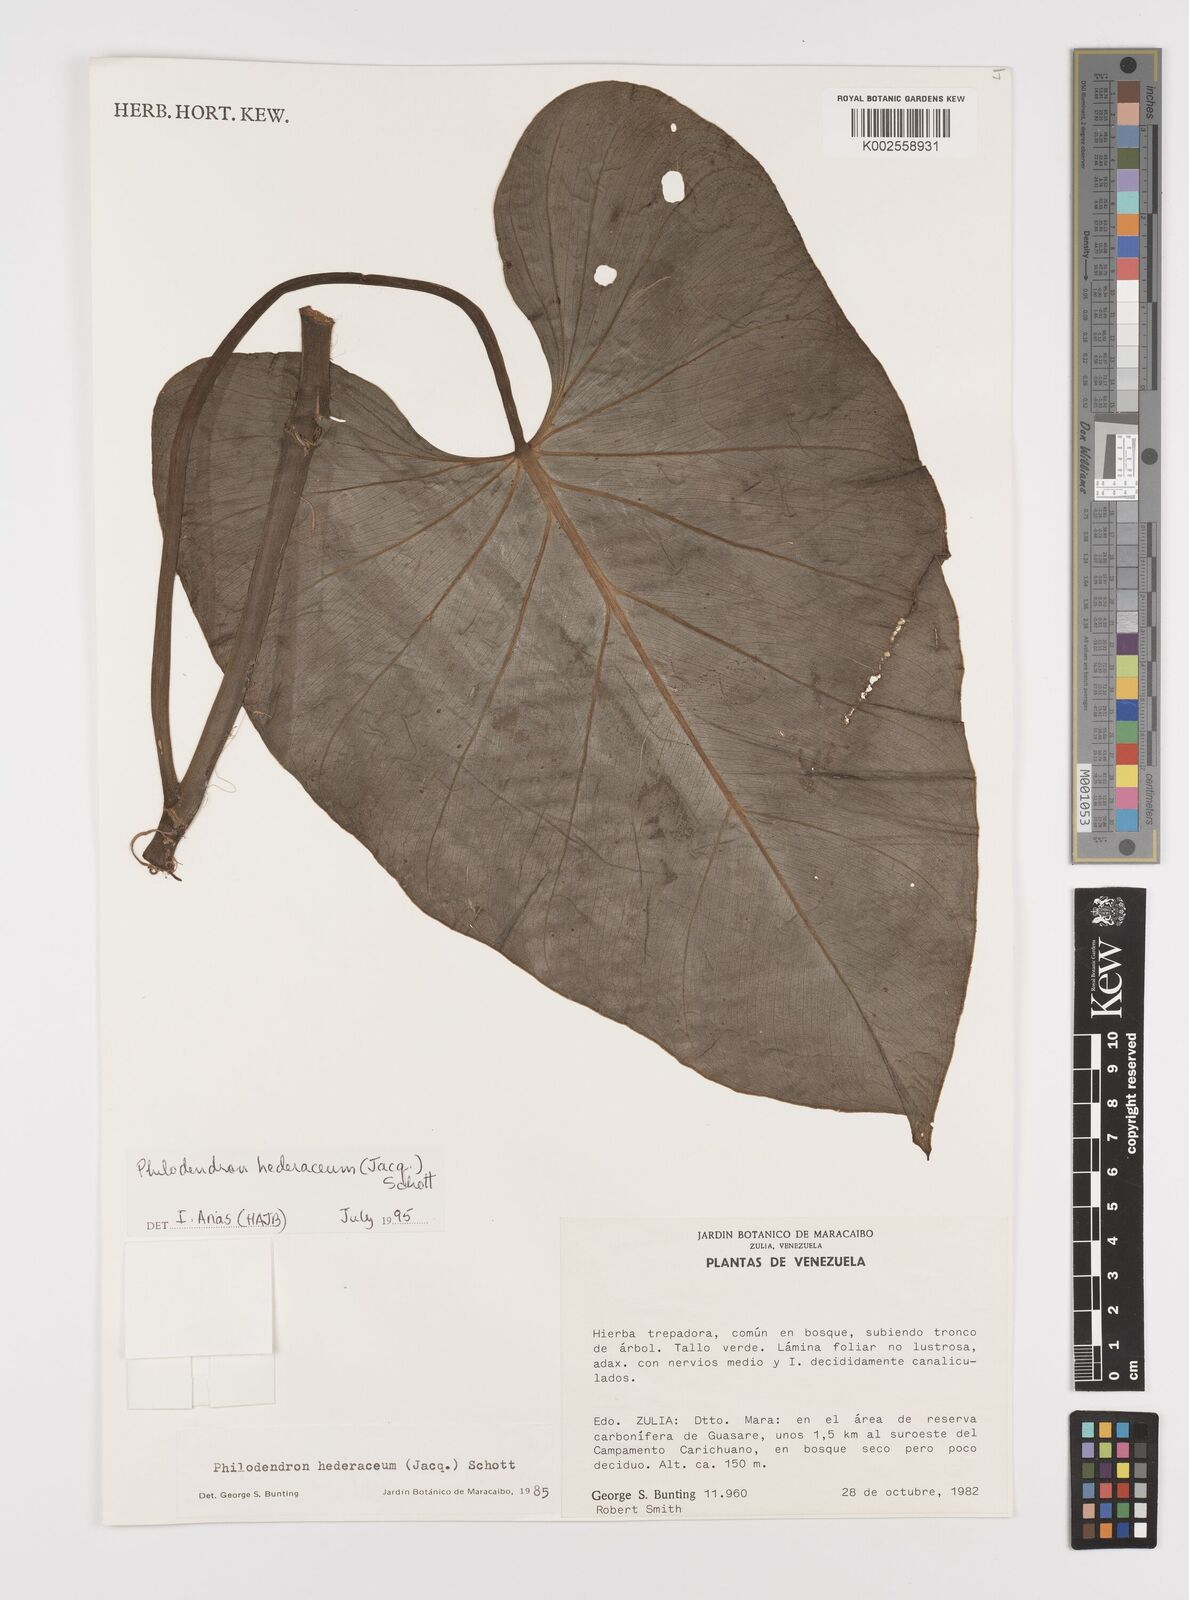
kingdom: Plantae
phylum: Tracheophyta
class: Liliopsida
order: Alismatales
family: Araceae
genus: Philodendron
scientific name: Philodendron hederaceum
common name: Vilevine
